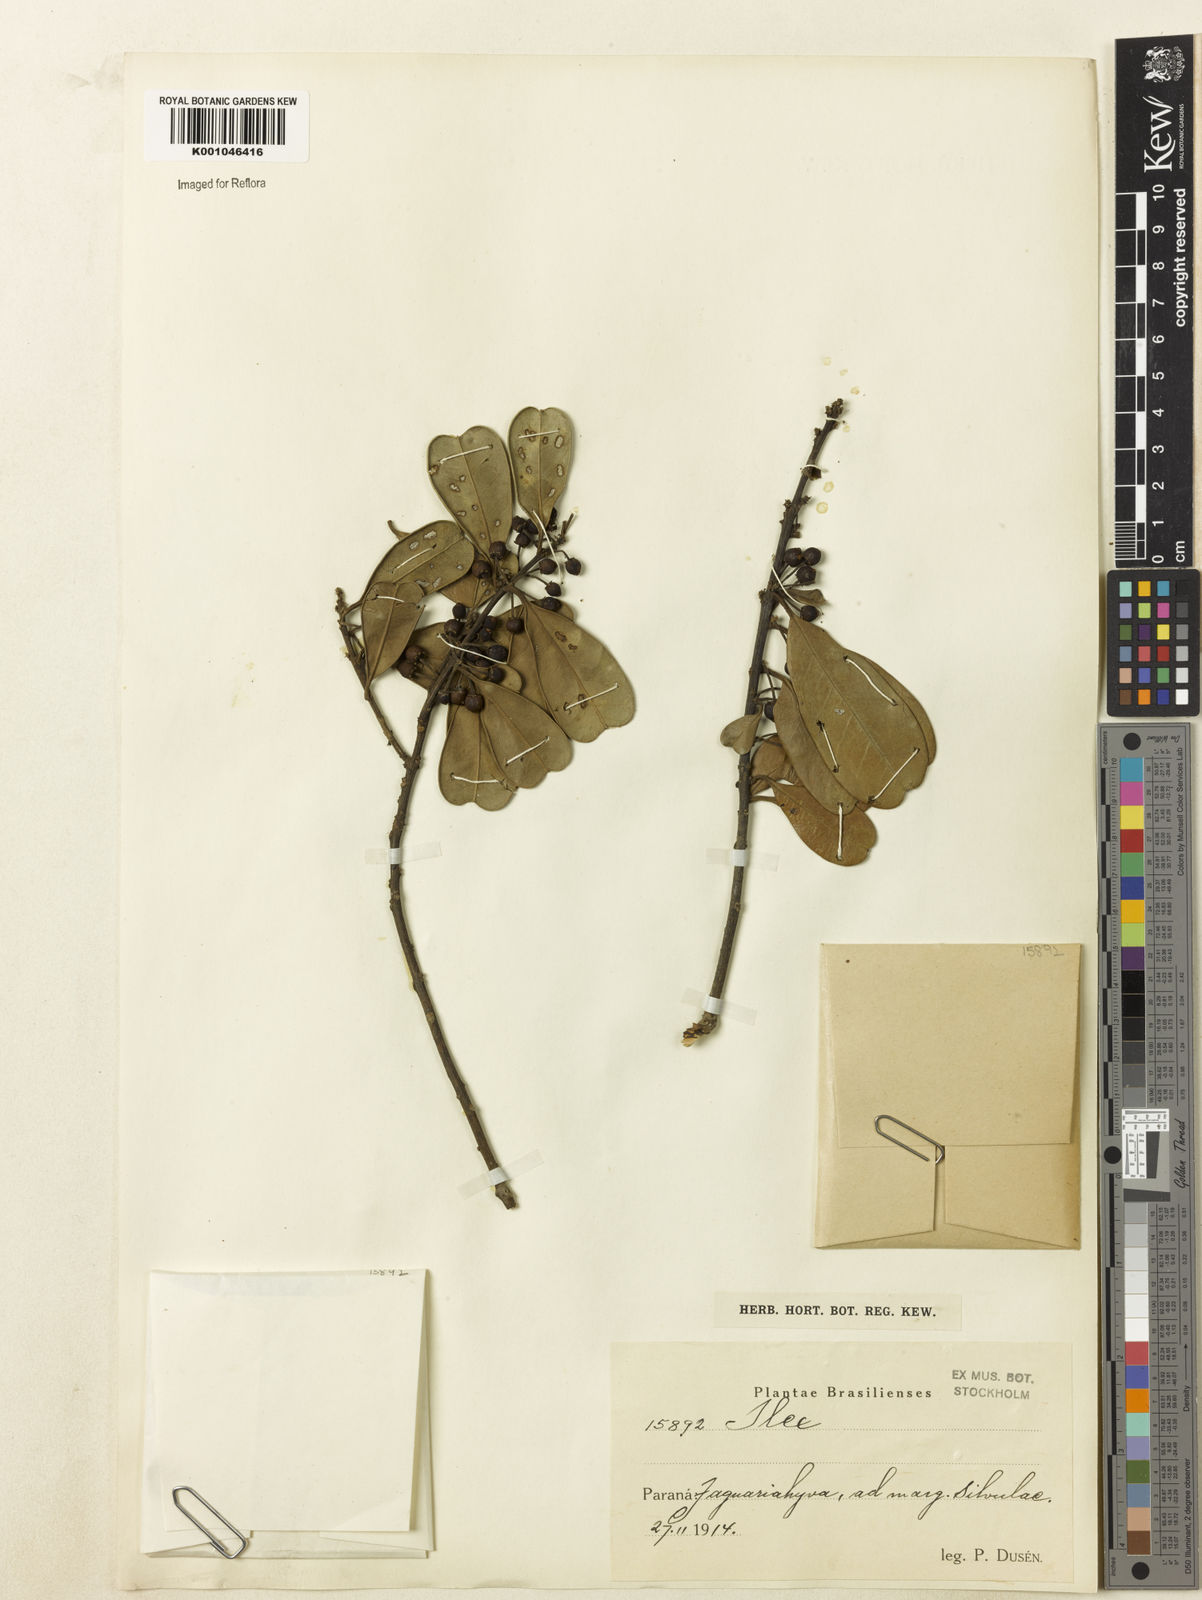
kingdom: Plantae
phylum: Tracheophyta
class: Magnoliopsida
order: Aquifoliales
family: Aquifoliaceae
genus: Ilex
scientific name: Ilex paraguariensis
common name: Paraguay tea
